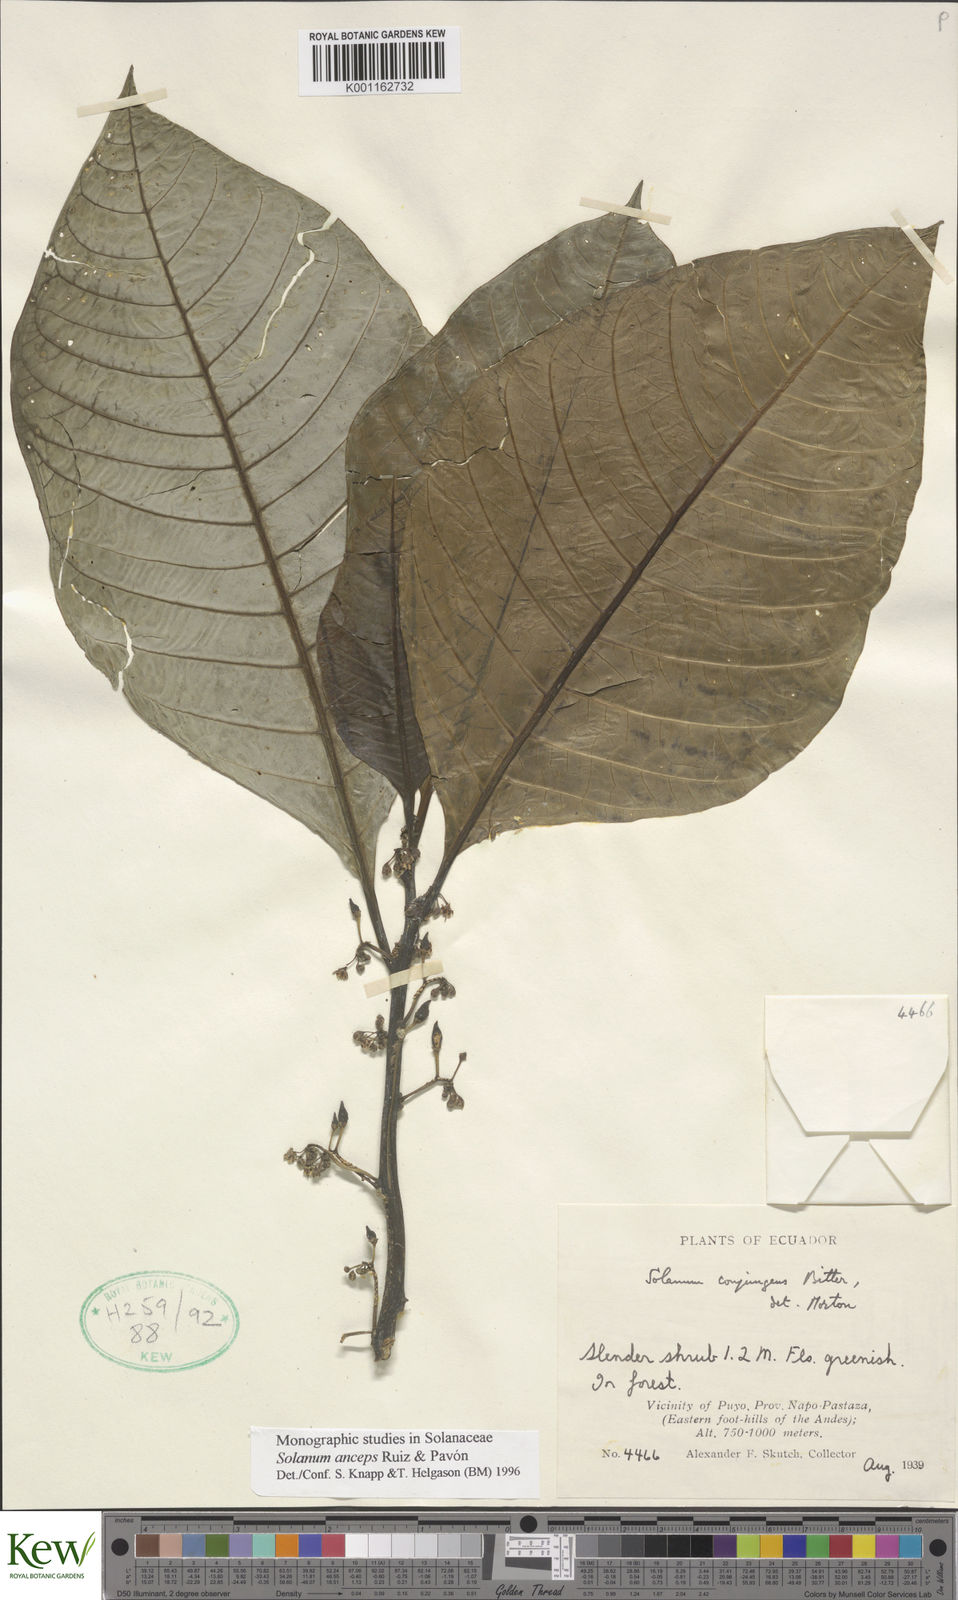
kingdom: Plantae
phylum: Tracheophyta
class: Magnoliopsida
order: Solanales
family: Solanaceae
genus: Solanum
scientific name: Solanum anceps
